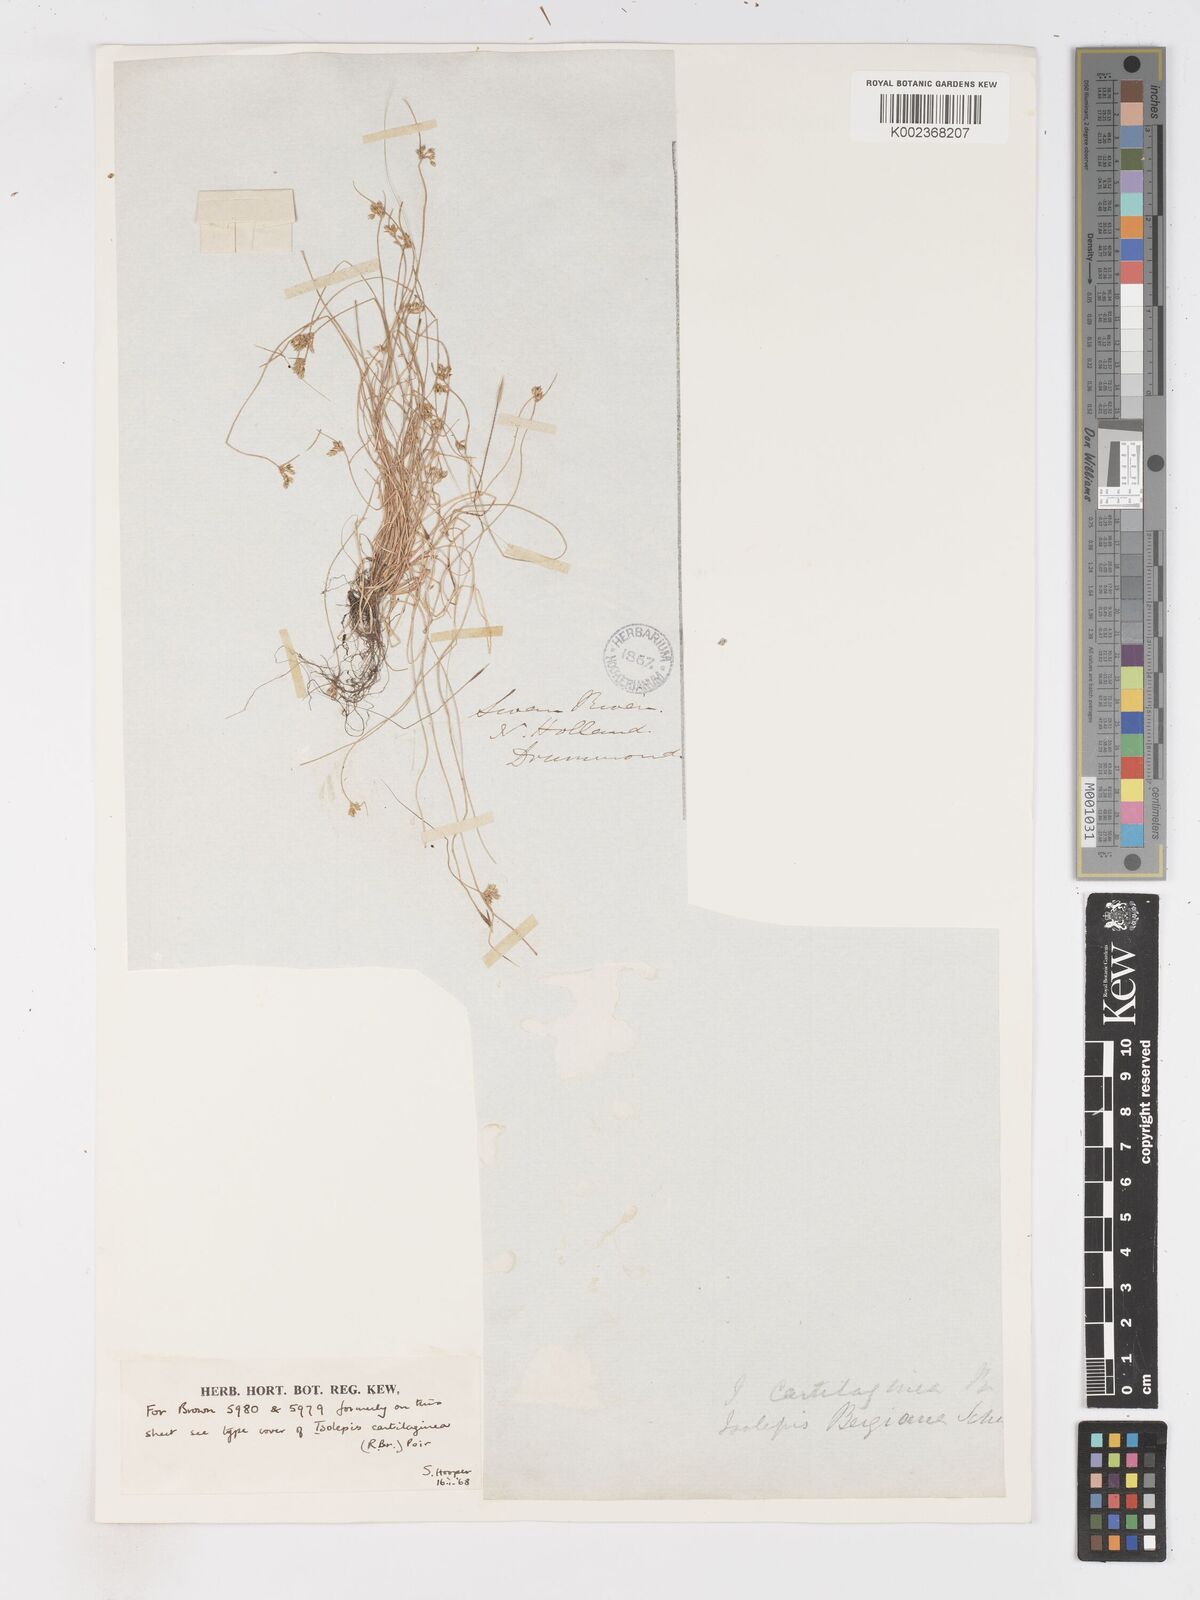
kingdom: Plantae
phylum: Tracheophyta
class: Liliopsida
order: Poales
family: Cyperaceae
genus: Isolepis
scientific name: Isolepis marginata
